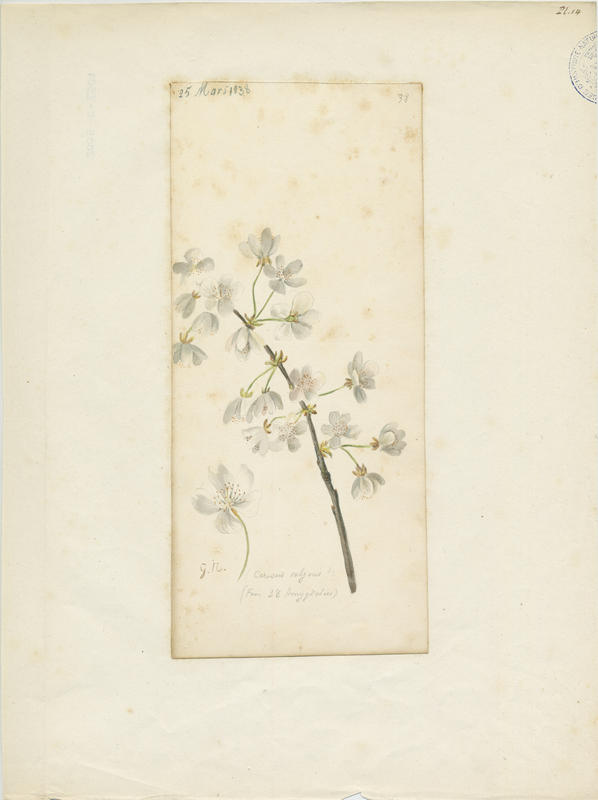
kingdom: Plantae
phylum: Tracheophyta
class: Magnoliopsida
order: Rosales
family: Rosaceae
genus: Prunus
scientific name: Prunus cerasus
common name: Morello cherry
